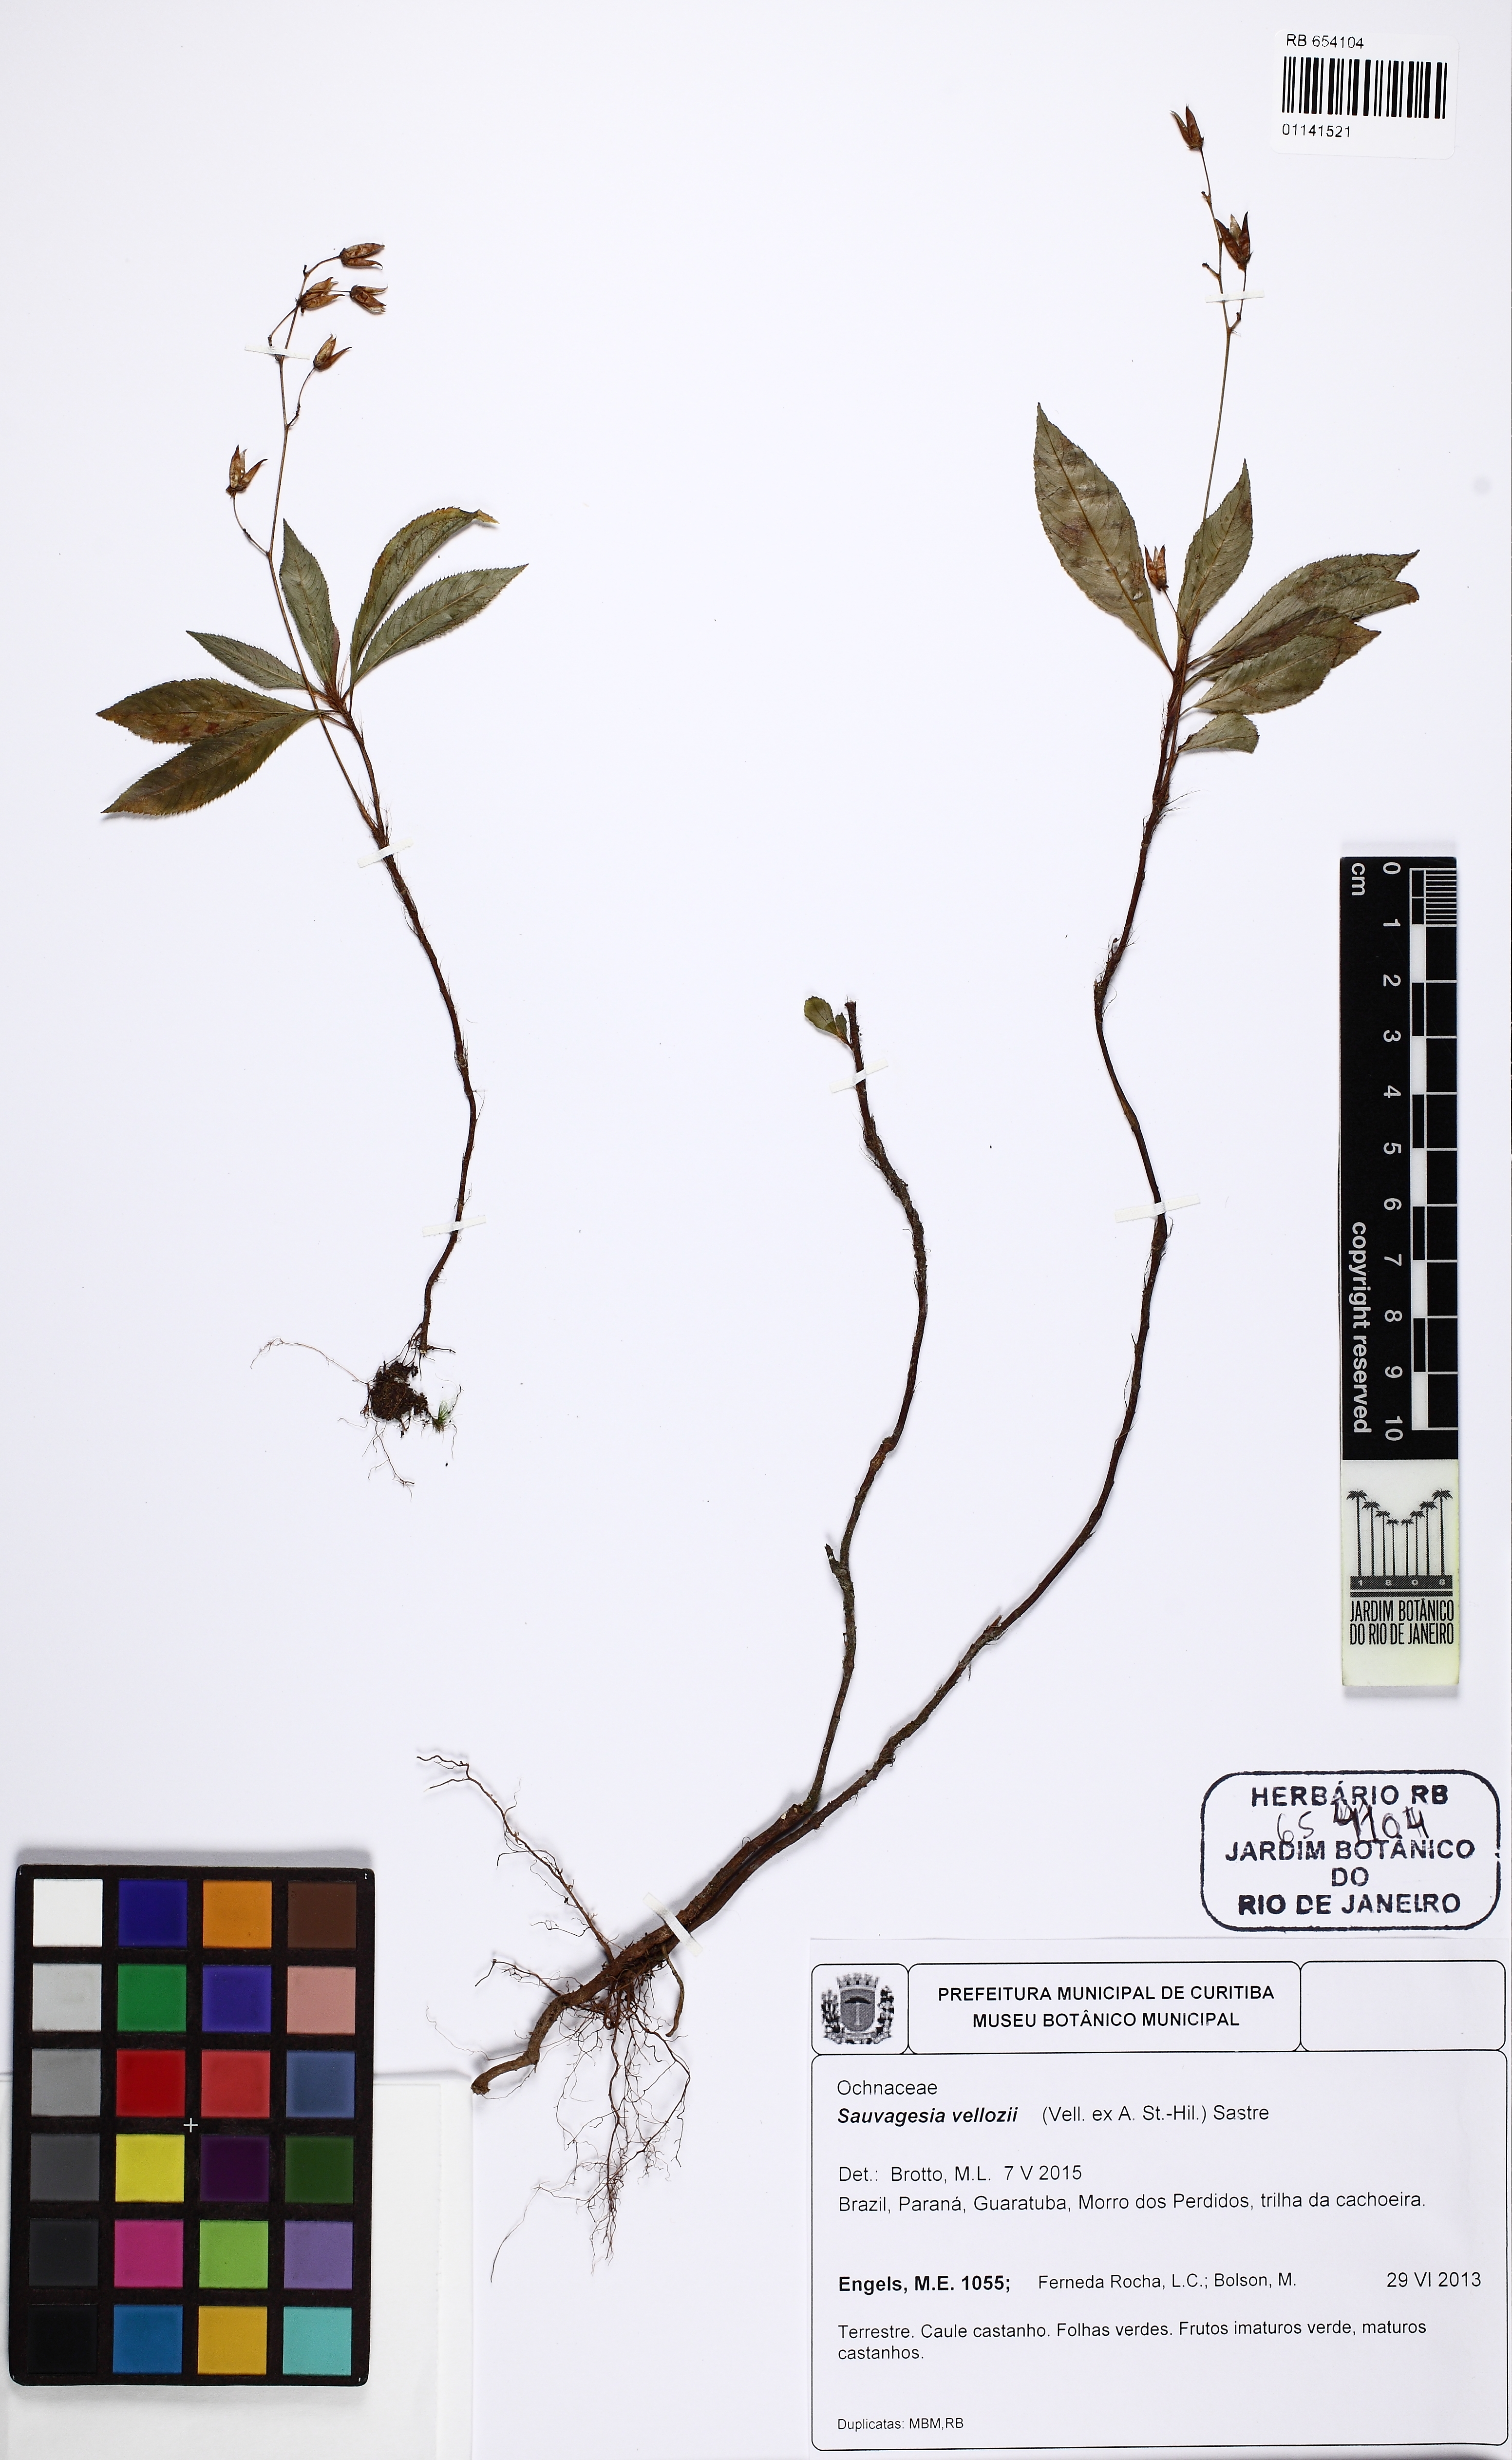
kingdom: Plantae
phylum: Tracheophyta
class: Magnoliopsida
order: Malpighiales
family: Ochnaceae
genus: Sauvagesia
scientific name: Sauvagesia vellozii
